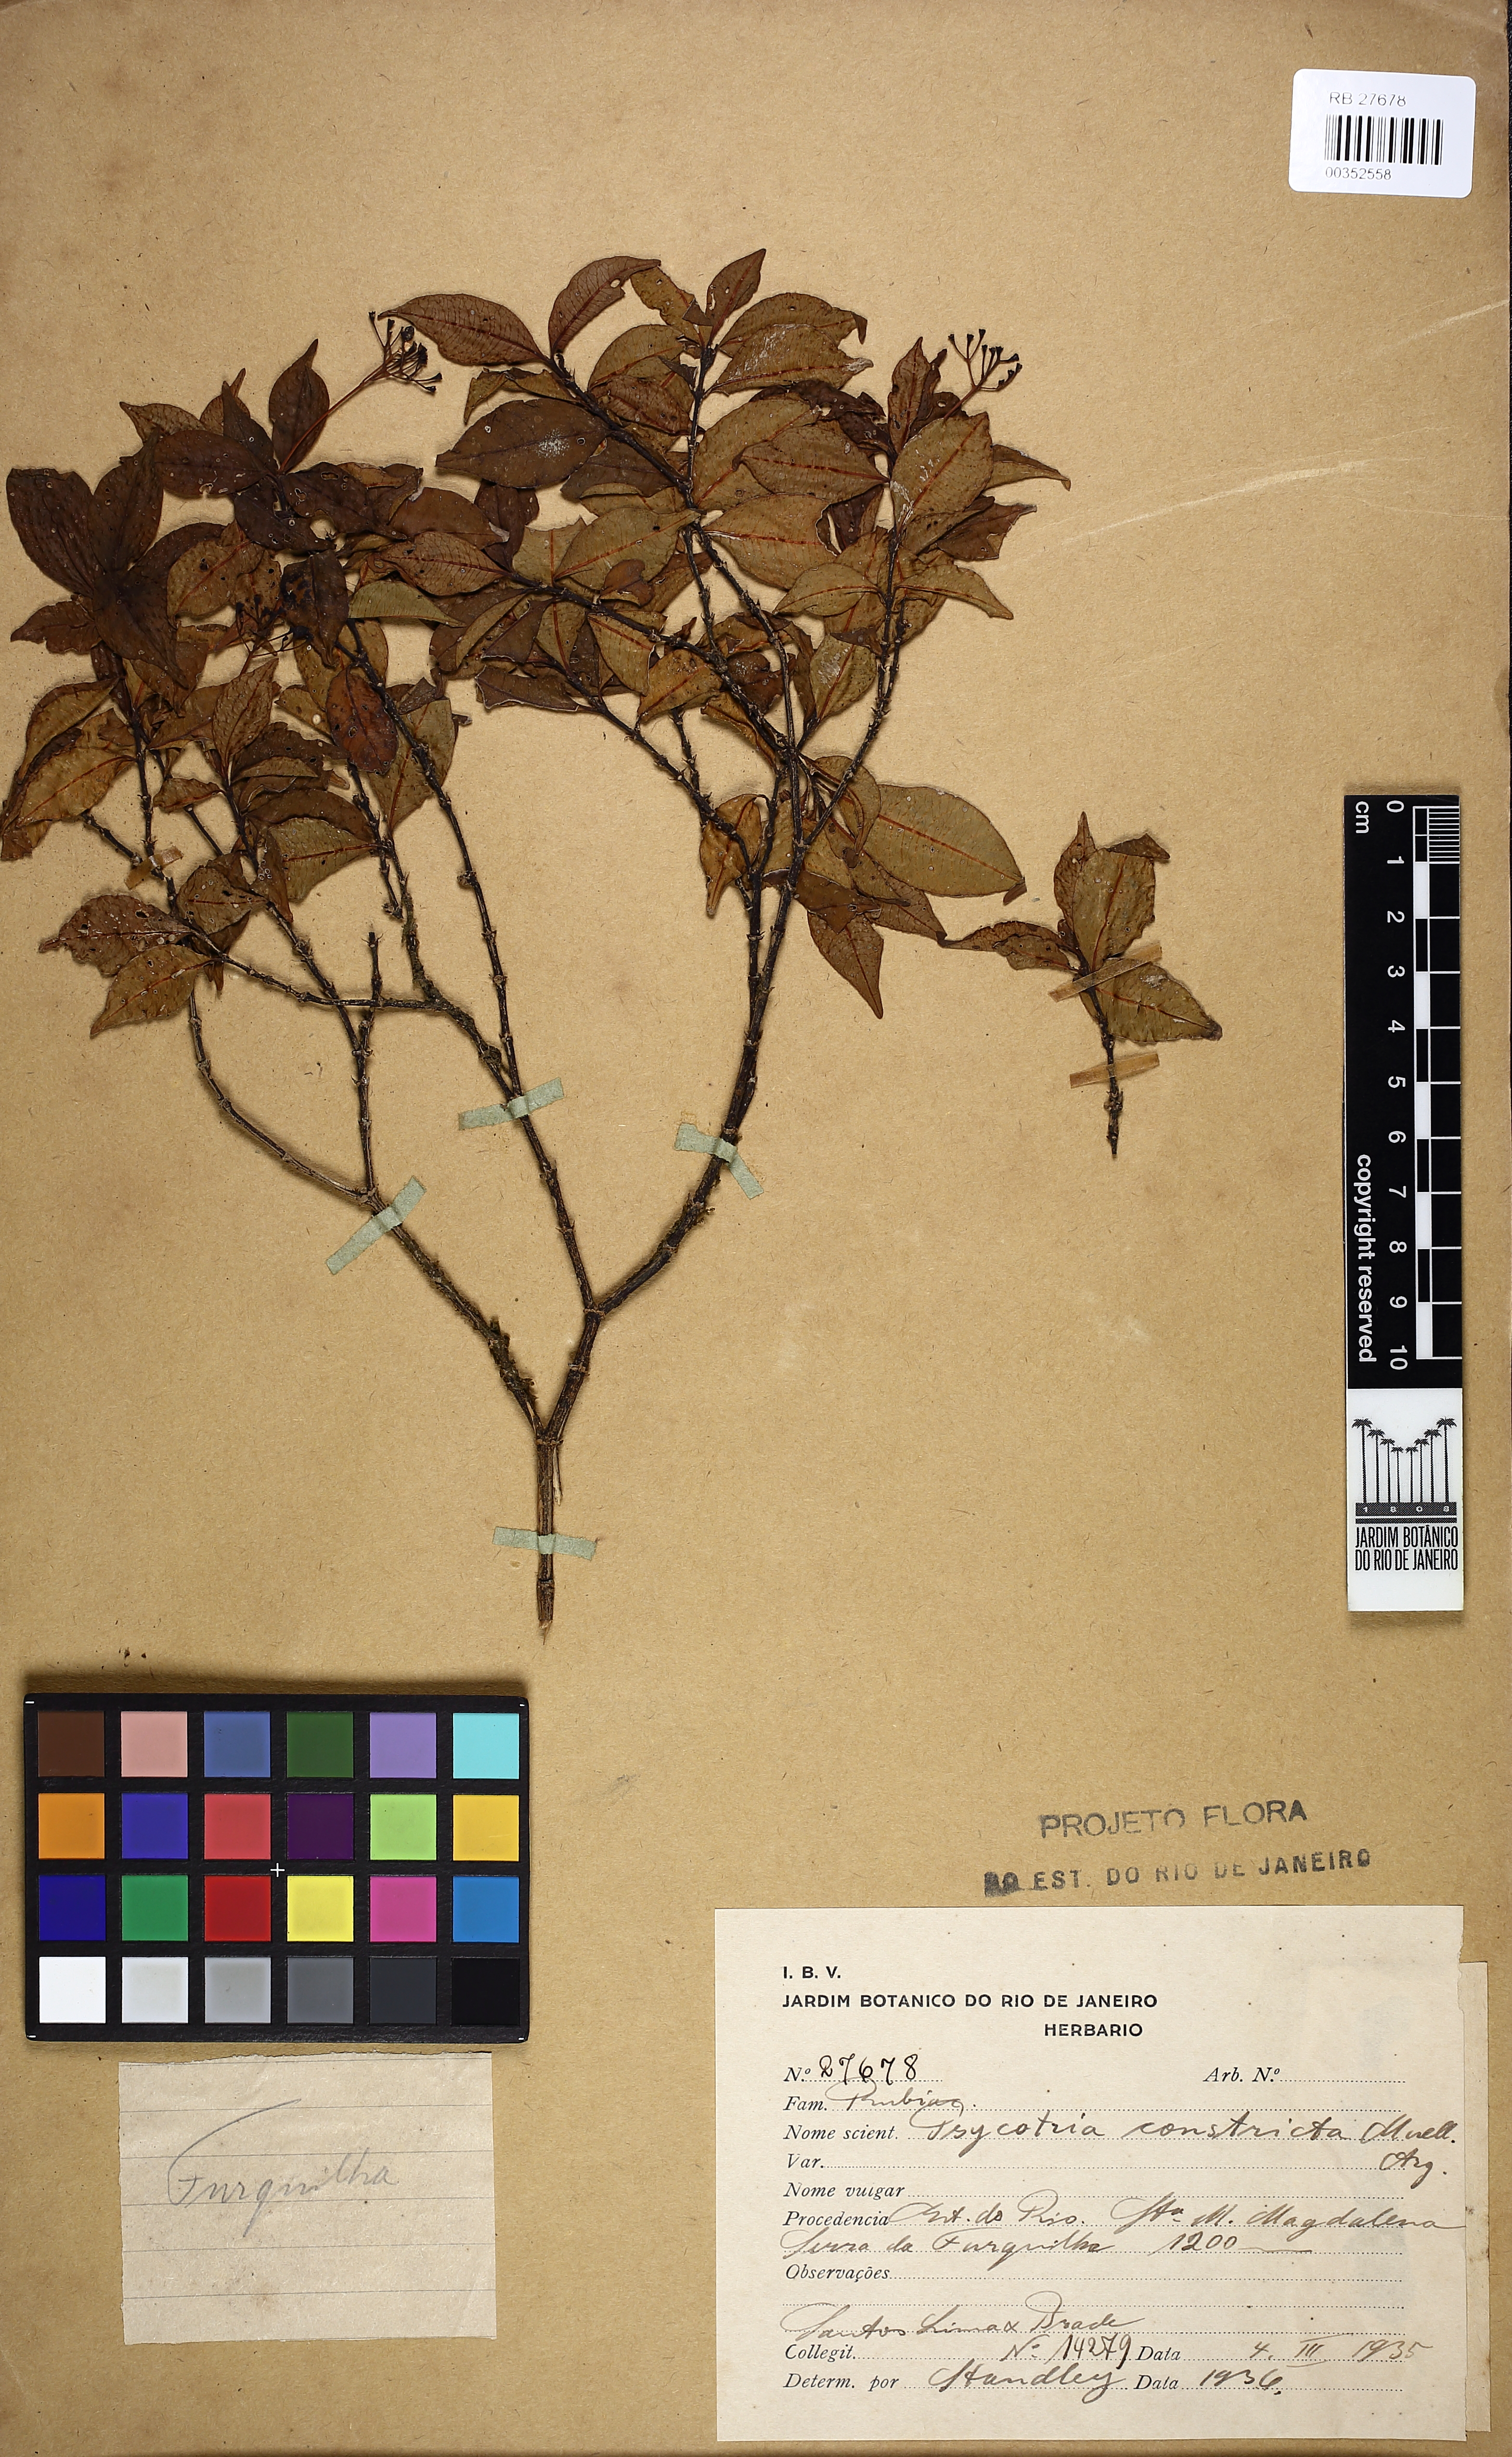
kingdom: Plantae
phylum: Tracheophyta
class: Magnoliopsida
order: Gentianales
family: Rubiaceae
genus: Psychotria
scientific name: Psychotria leiocarpa
